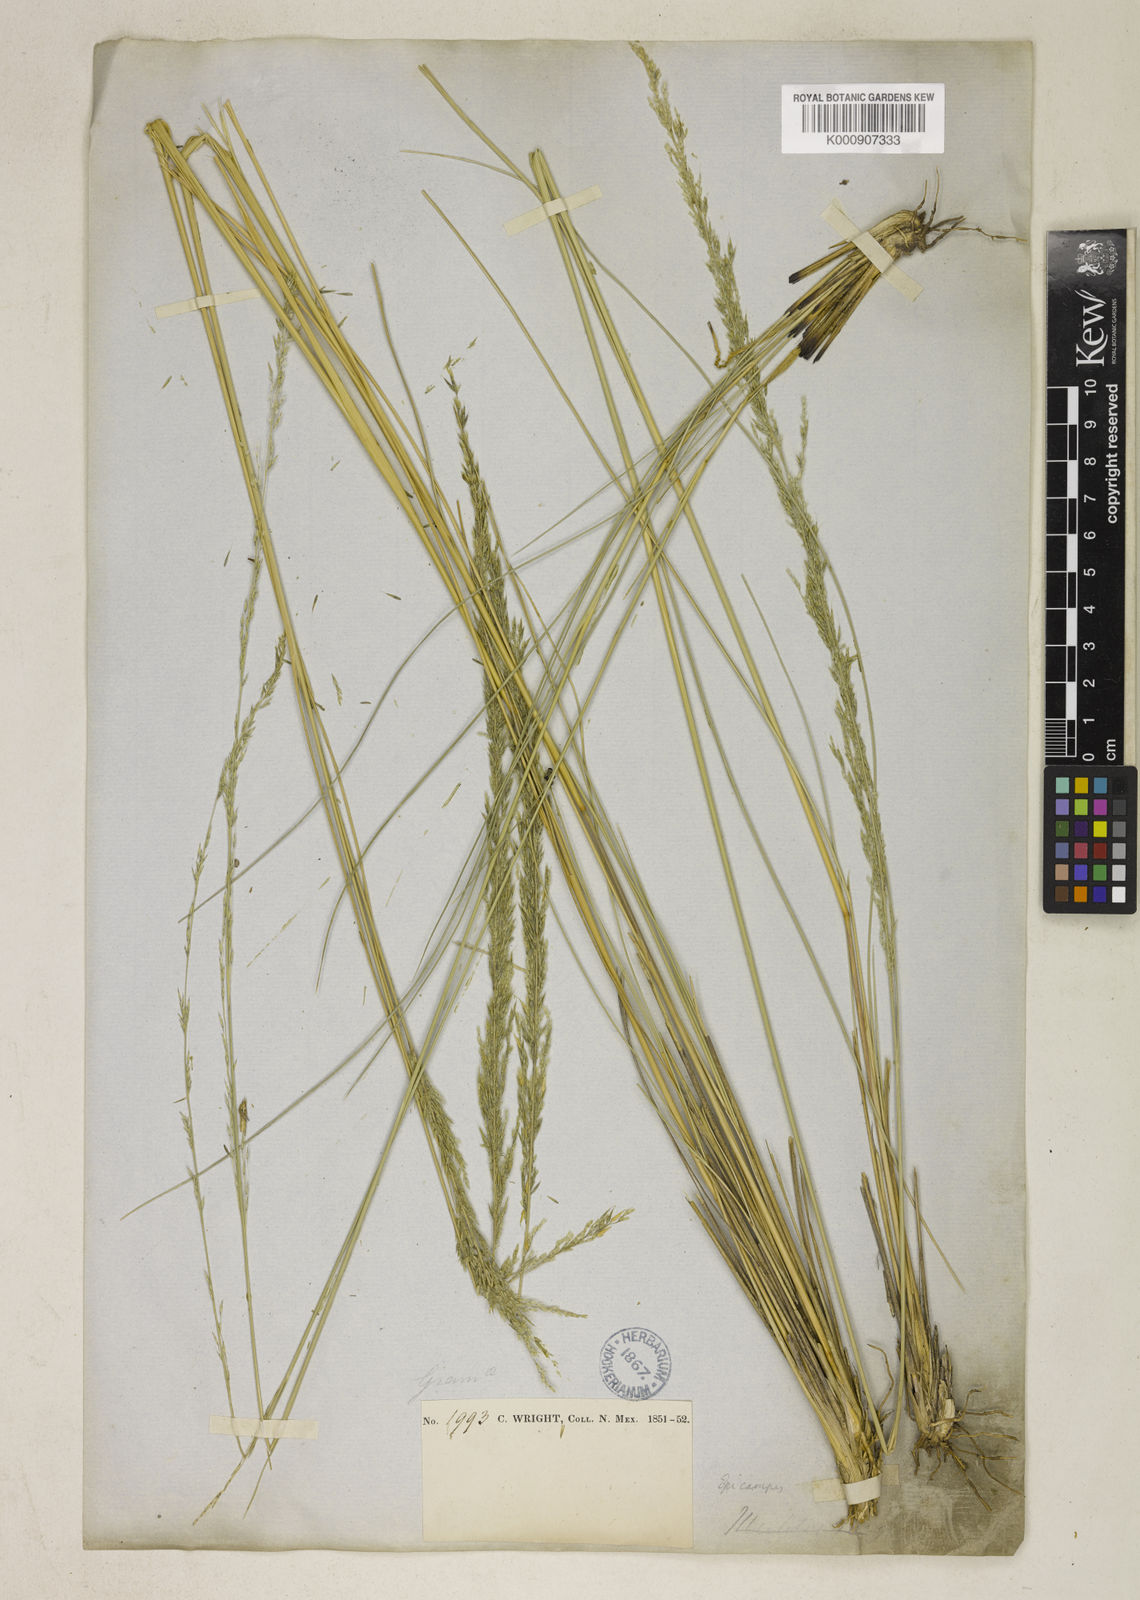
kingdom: Plantae
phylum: Tracheophyta
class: Liliopsida
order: Poales
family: Poaceae
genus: Muhlenbergia
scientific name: Muhlenbergia dubia
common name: Pine muhly
